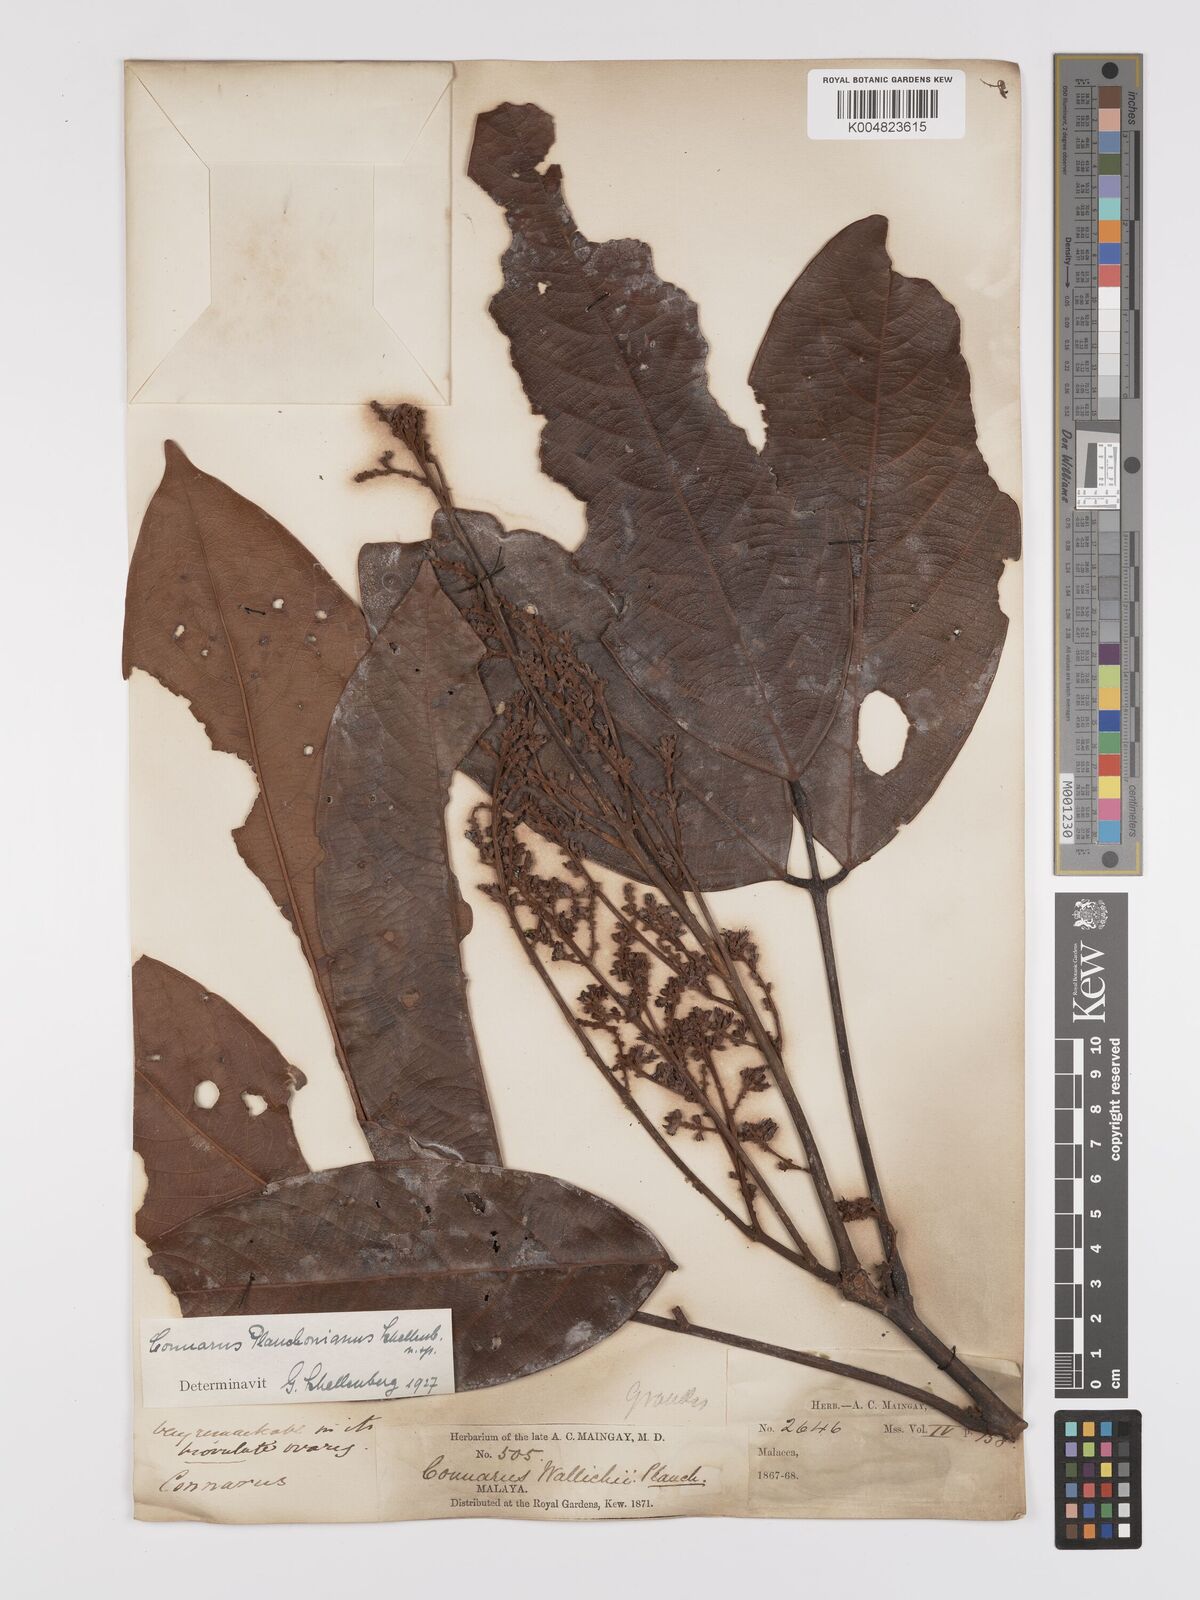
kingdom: Plantae
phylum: Tracheophyta
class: Magnoliopsida
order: Oxalidales
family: Connaraceae
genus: Connarus
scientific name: Connarus planchonianus
